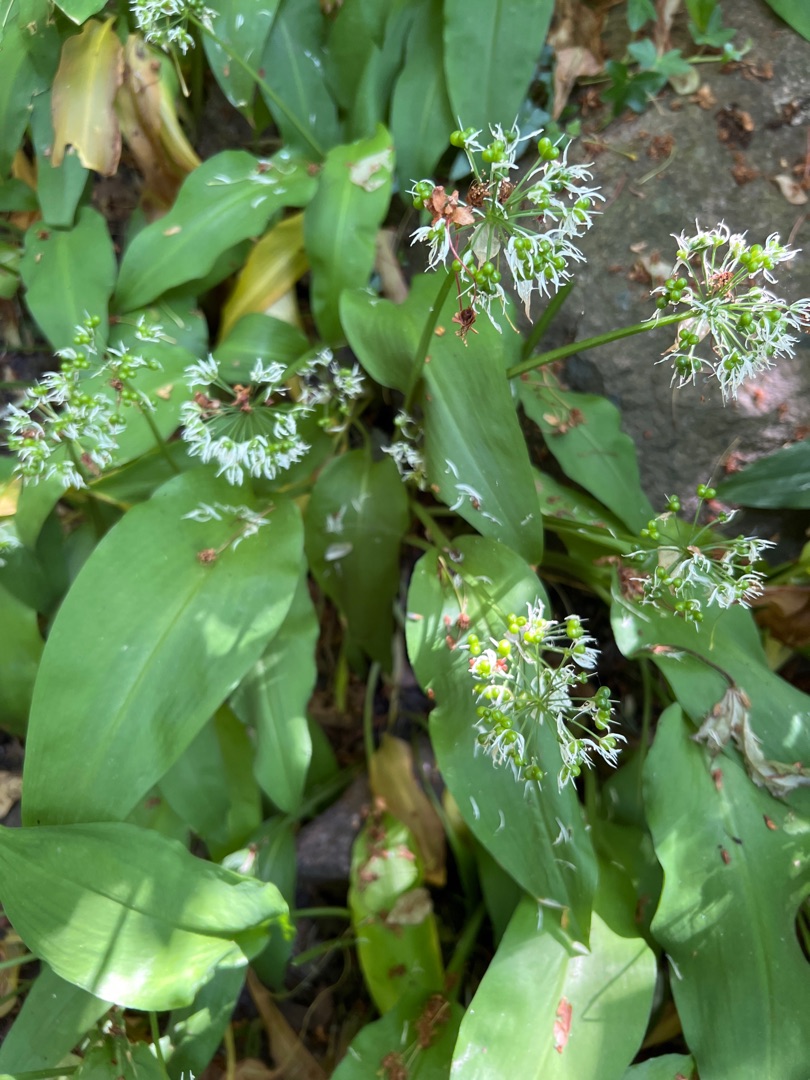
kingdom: Plantae
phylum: Tracheophyta
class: Liliopsida
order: Asparagales
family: Amaryllidaceae
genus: Allium
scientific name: Allium ursinum
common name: Rams-løg
